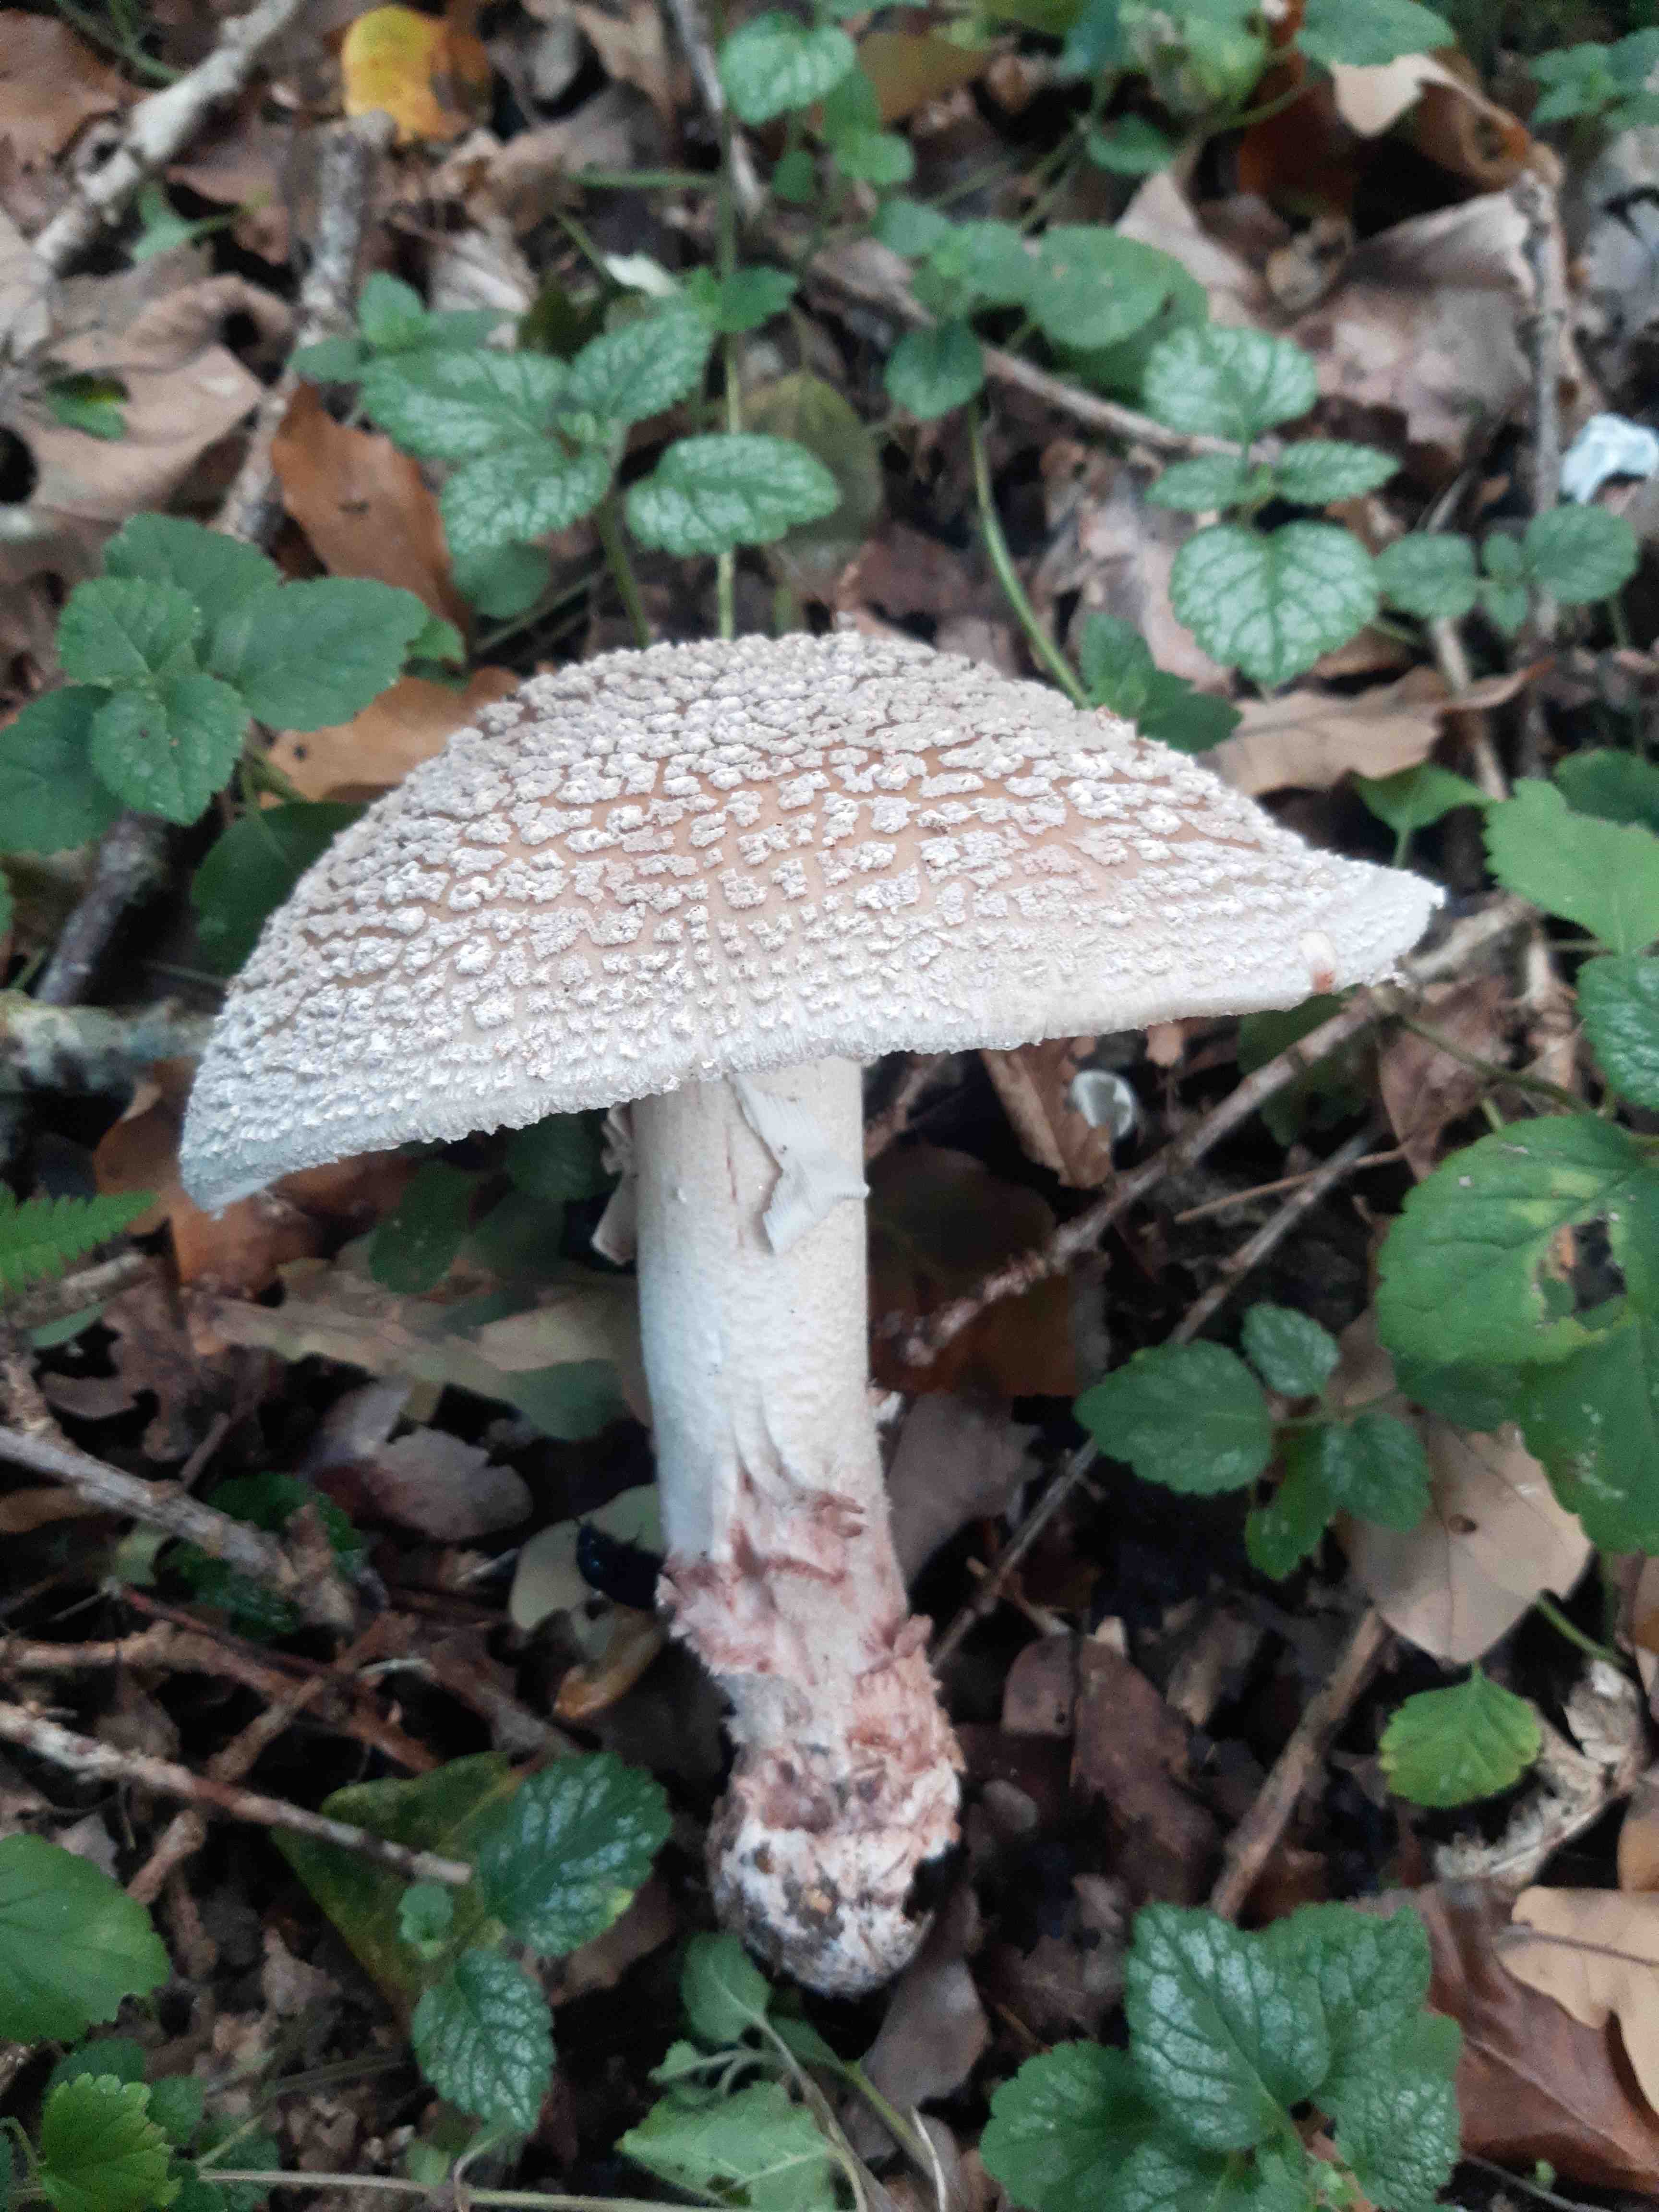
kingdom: Fungi
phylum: Basidiomycota
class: Agaricomycetes
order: Agaricales
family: Amanitaceae
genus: Amanita
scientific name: Amanita rubescens
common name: rødmende fluesvamp
